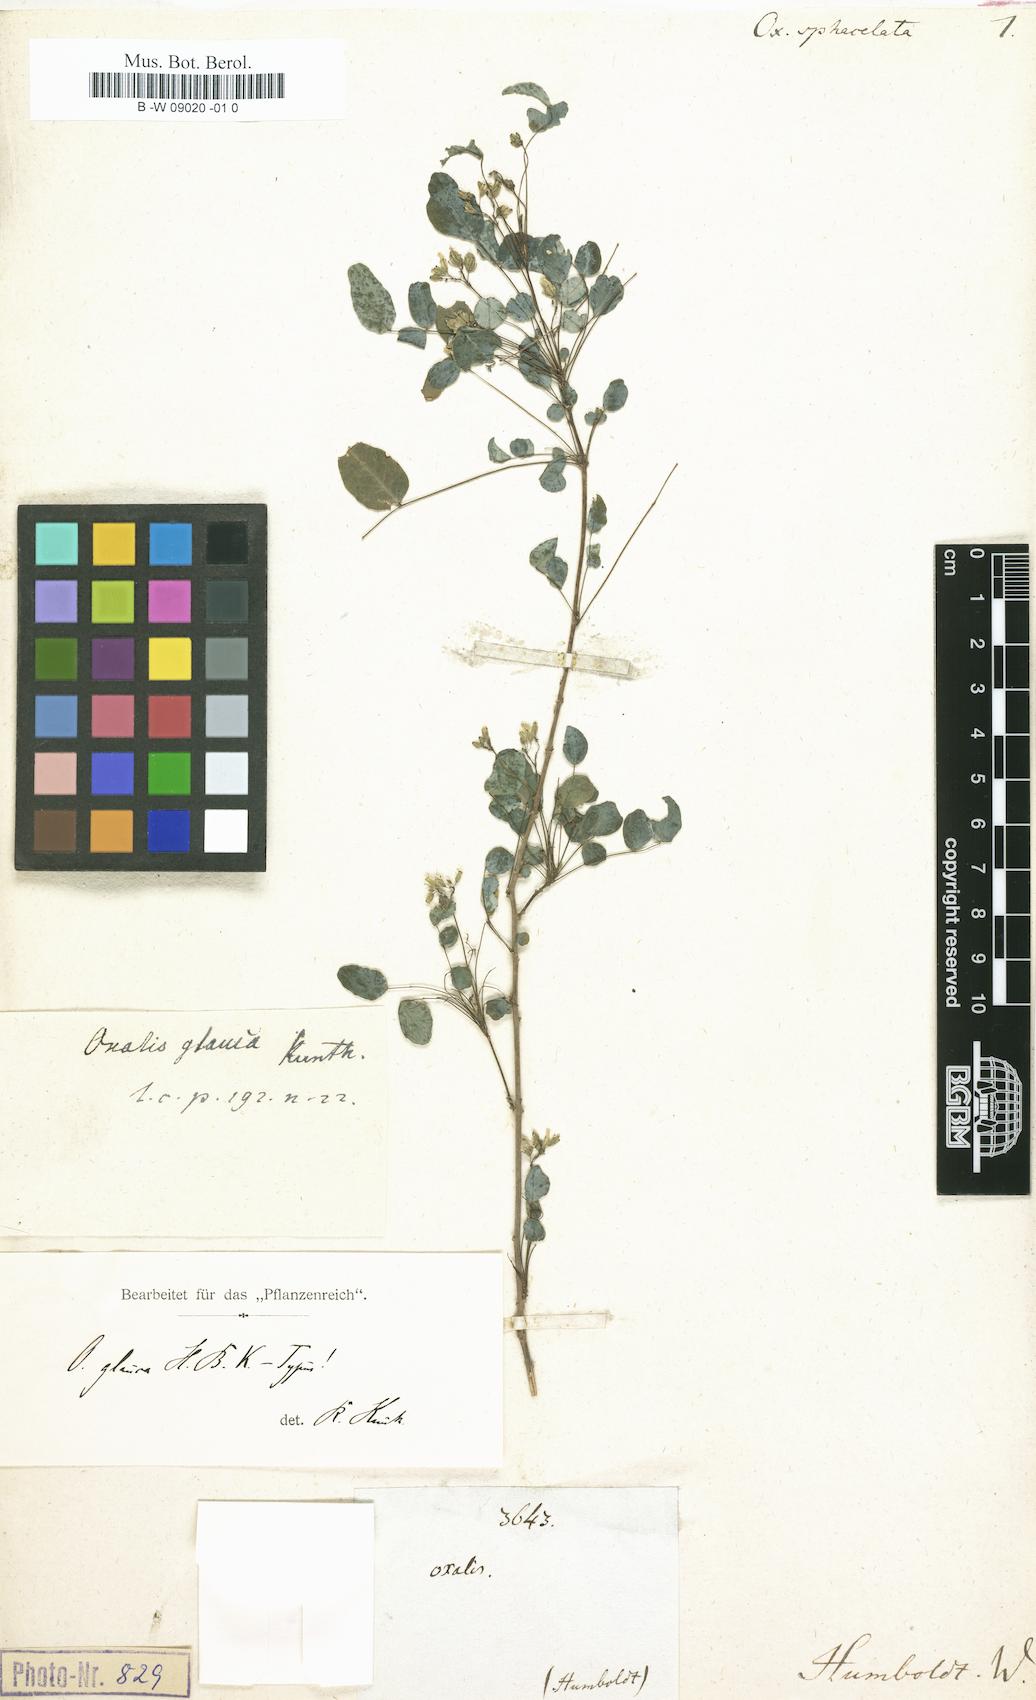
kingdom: Plantae
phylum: Tracheophyta
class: Magnoliopsida
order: Oxalidales
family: Oxalidaceae
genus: Oxalis
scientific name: Oxalis glauca
